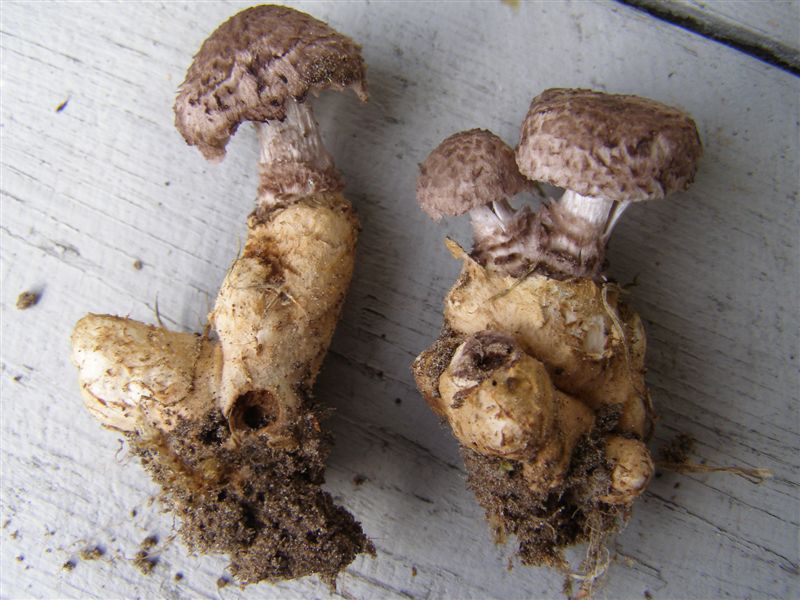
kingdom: Fungi
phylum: Basidiomycota
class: Agaricomycetes
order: Agaricales
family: Squamanitaceae
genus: Dissoderma
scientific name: Dissoderma odoratum
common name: vellugtende knoldfod
